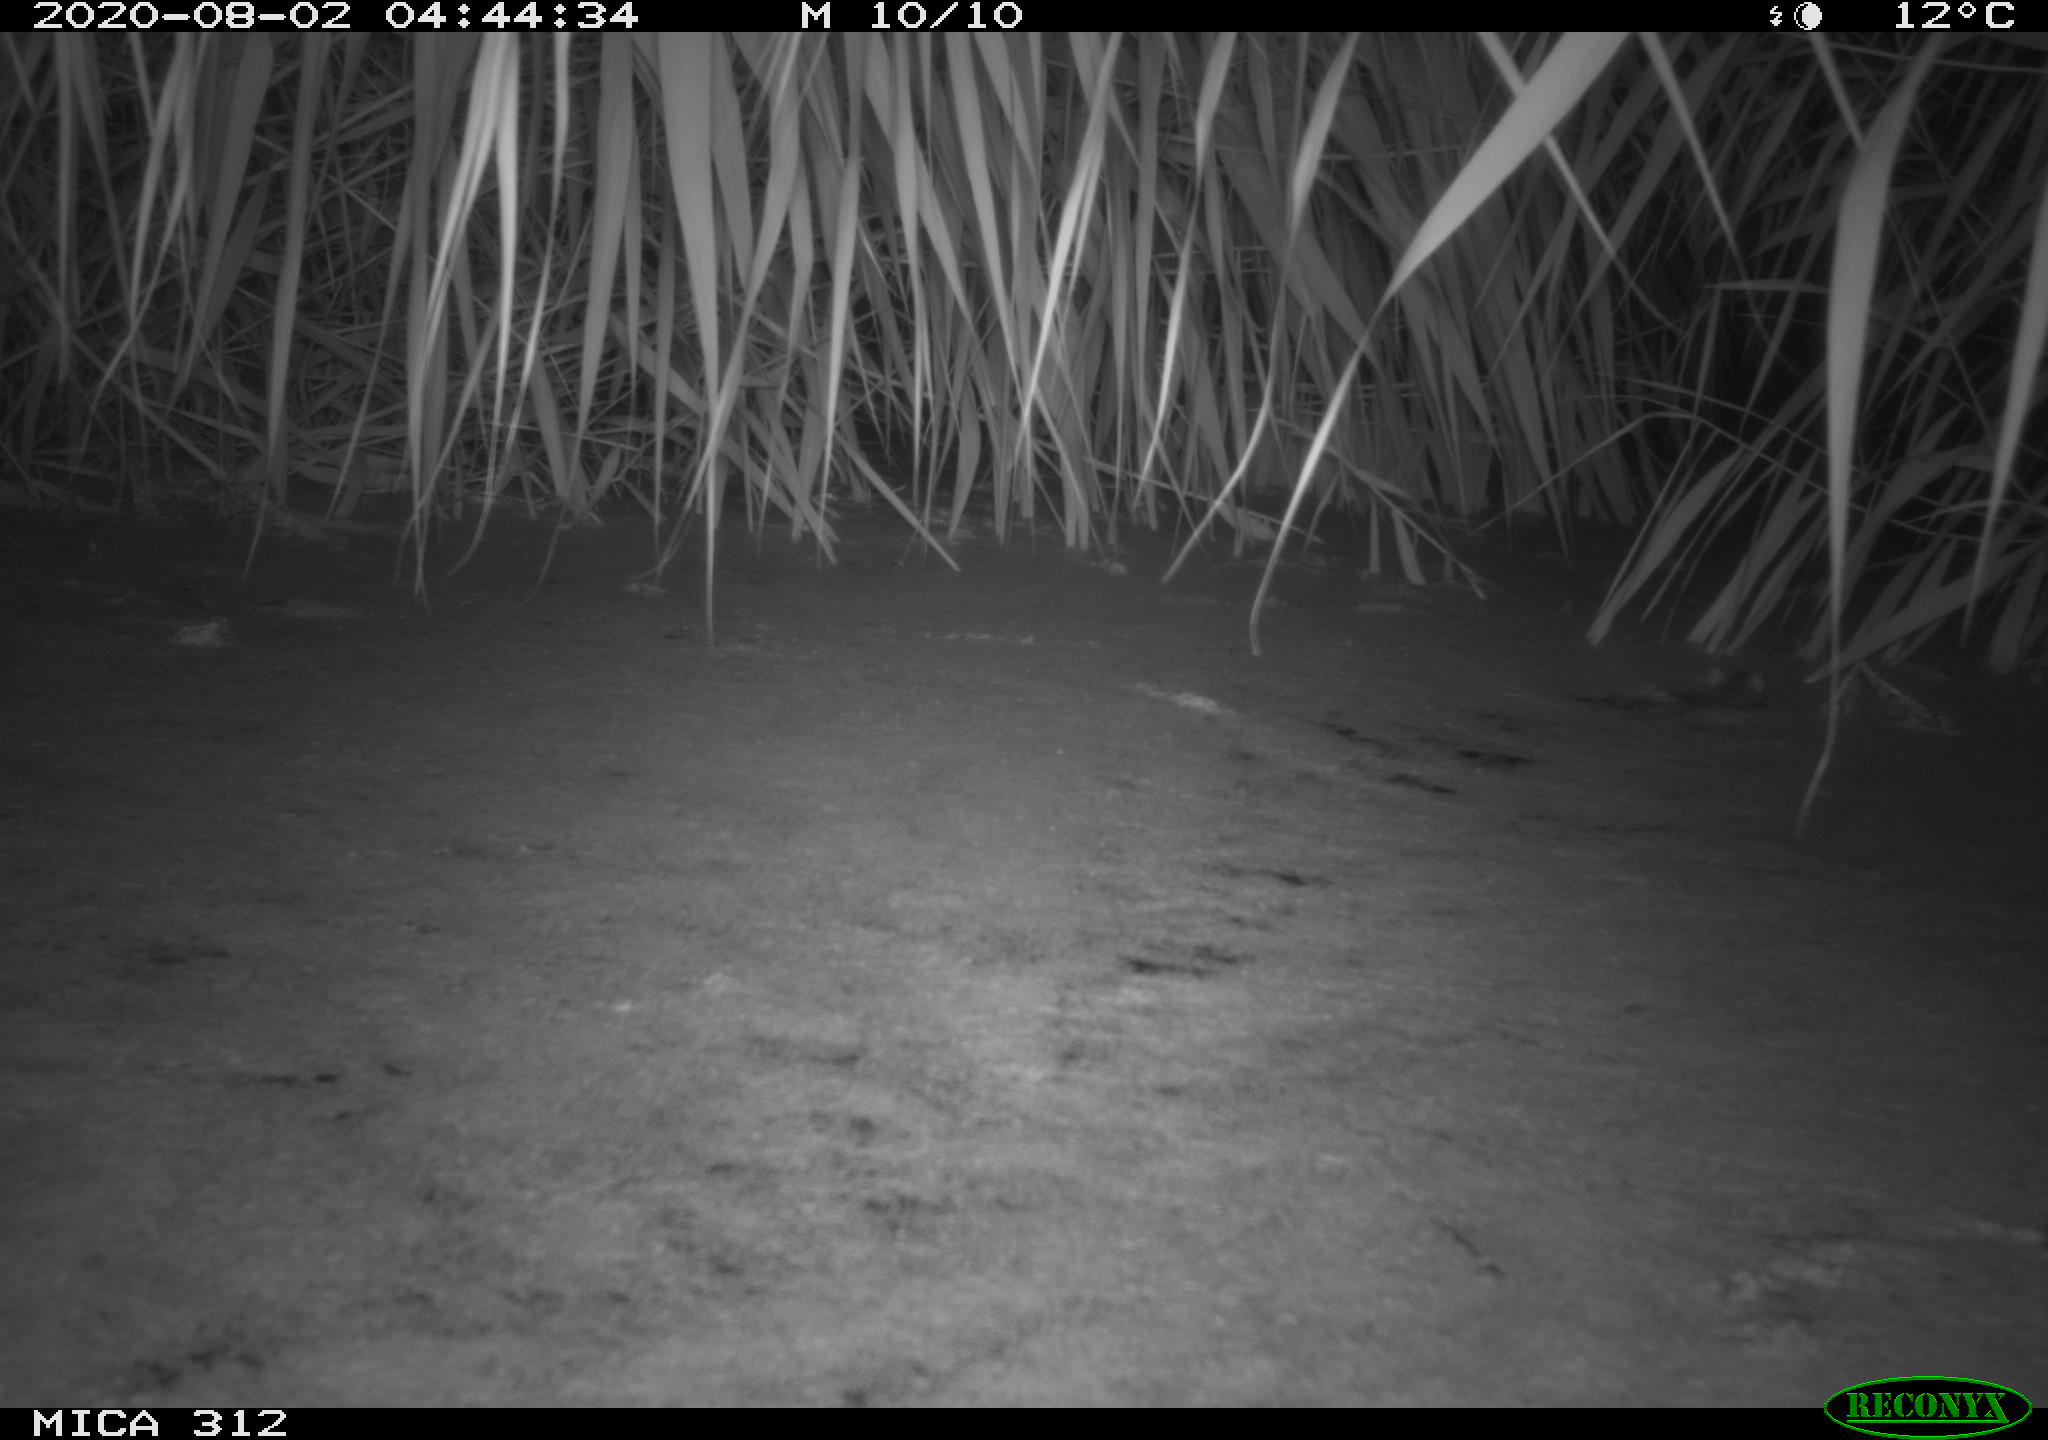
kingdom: Animalia
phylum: Chordata
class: Mammalia
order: Rodentia
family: Muridae
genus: Rattus
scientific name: Rattus norvegicus
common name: Brown rat
